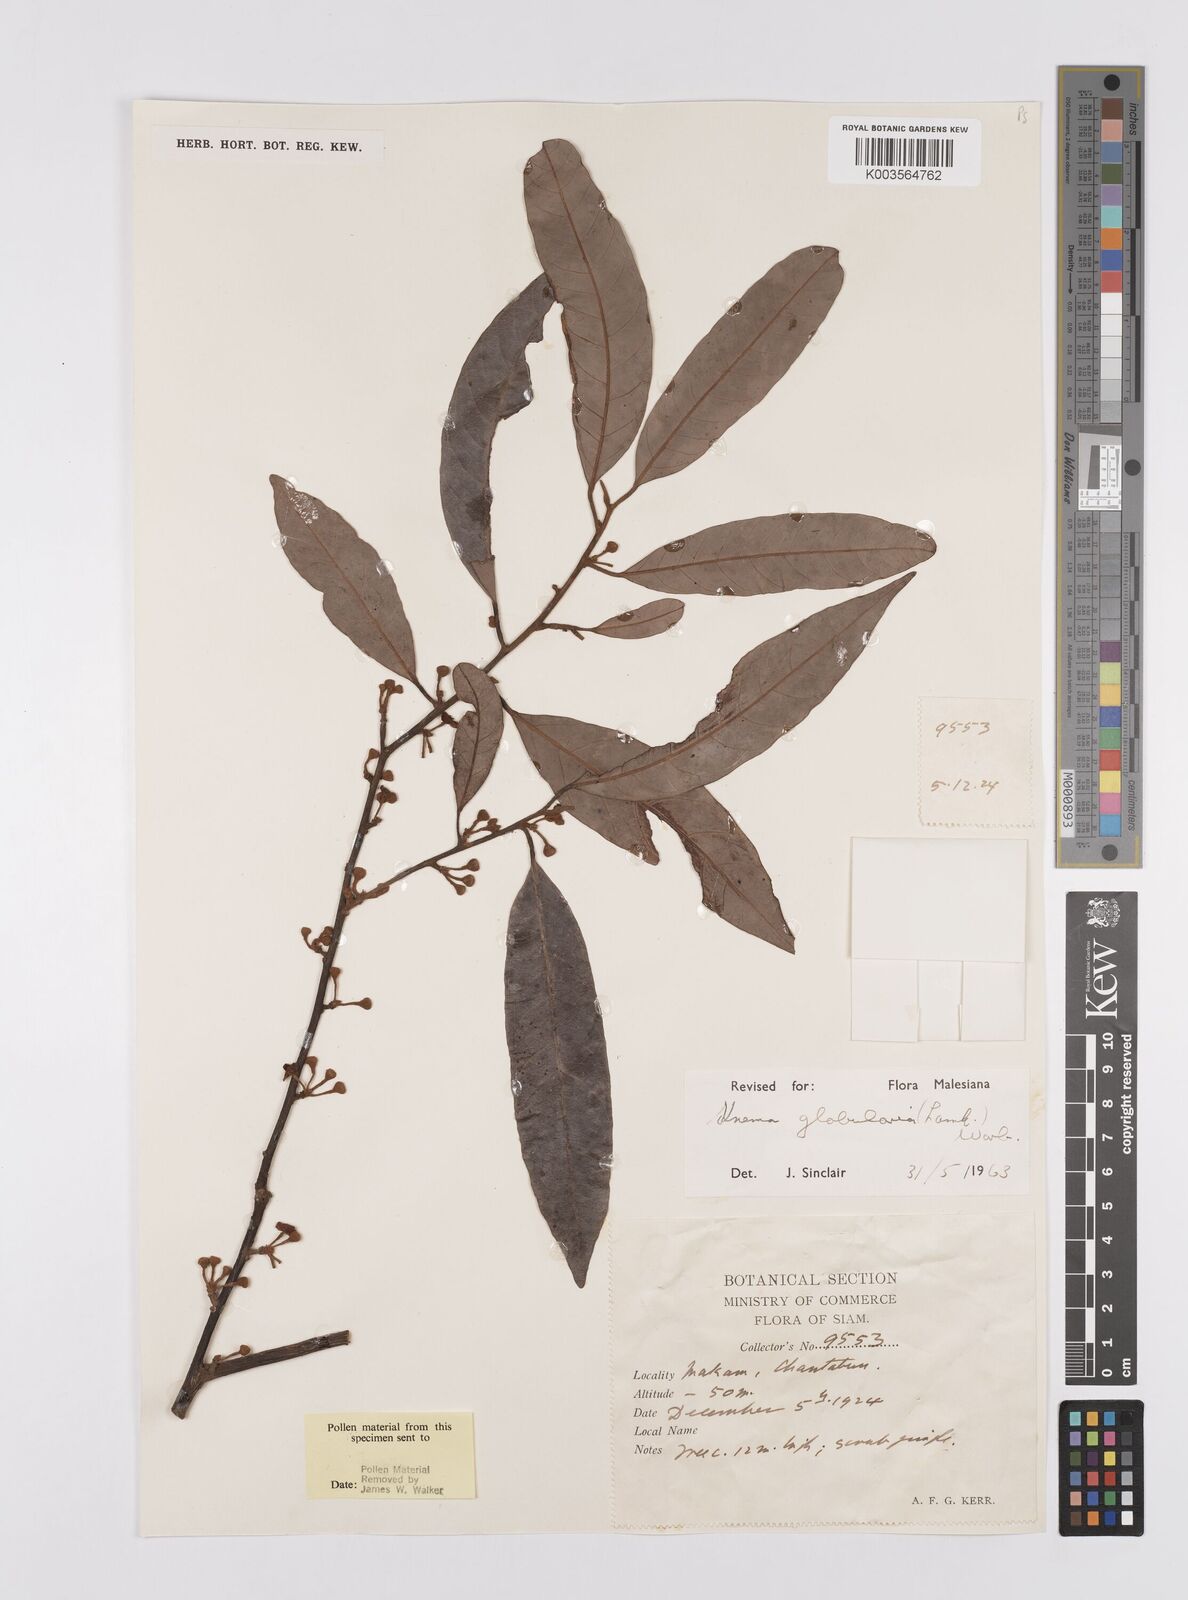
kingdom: Plantae
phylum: Tracheophyta
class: Magnoliopsida
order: Magnoliales
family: Myristicaceae
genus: Knema
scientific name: Knema globularia
